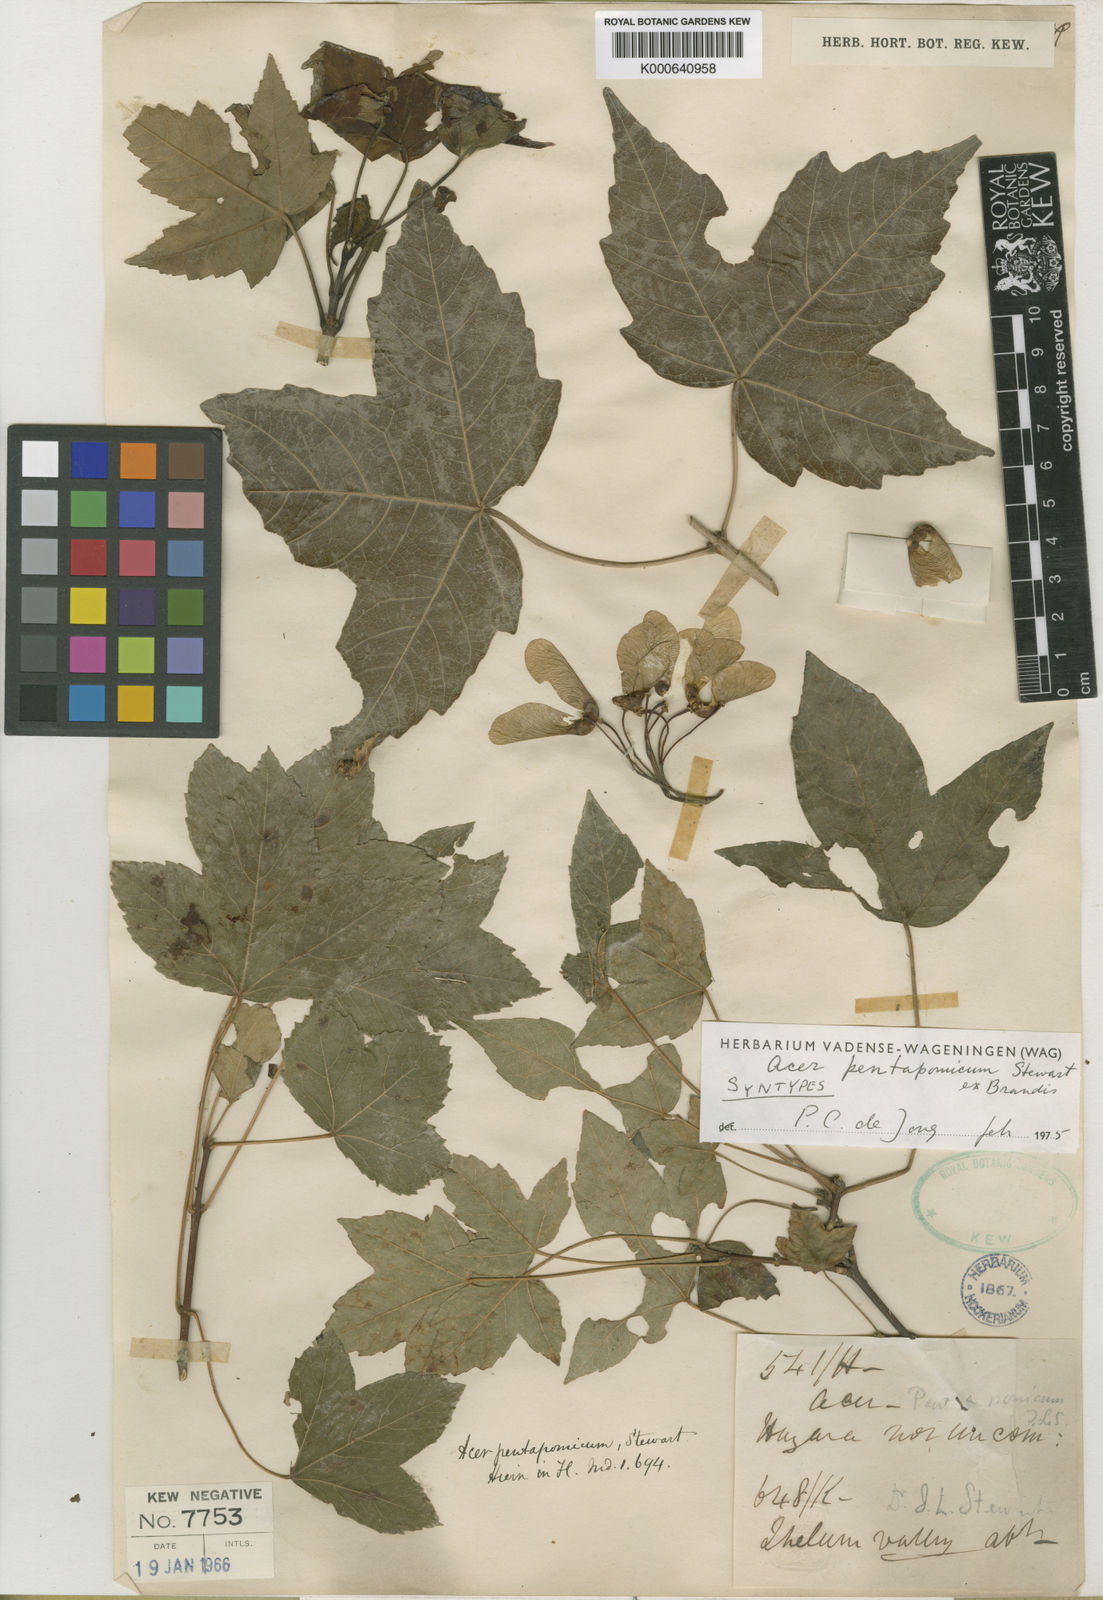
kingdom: Plantae
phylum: Tracheophyta
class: Magnoliopsida
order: Sapindales
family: Sapindaceae
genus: Acer
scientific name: Acer
